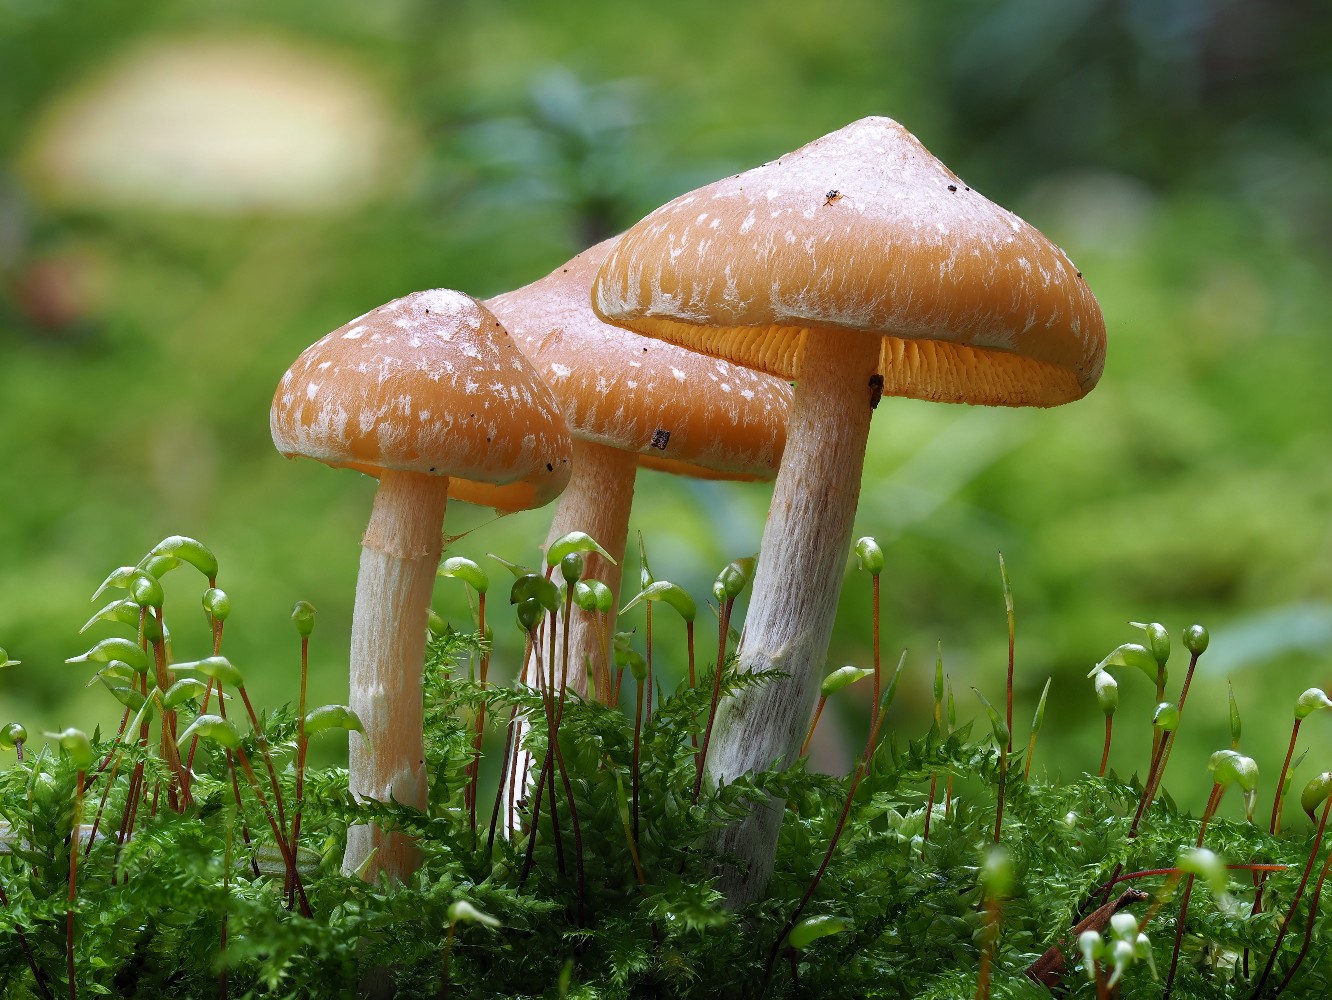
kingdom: Fungi
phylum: Basidiomycota
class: Agaricomycetes
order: Agaricales
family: Hymenogastraceae
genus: Galerina
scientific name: Galerina sideroides
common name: træflis-hjelmhat
